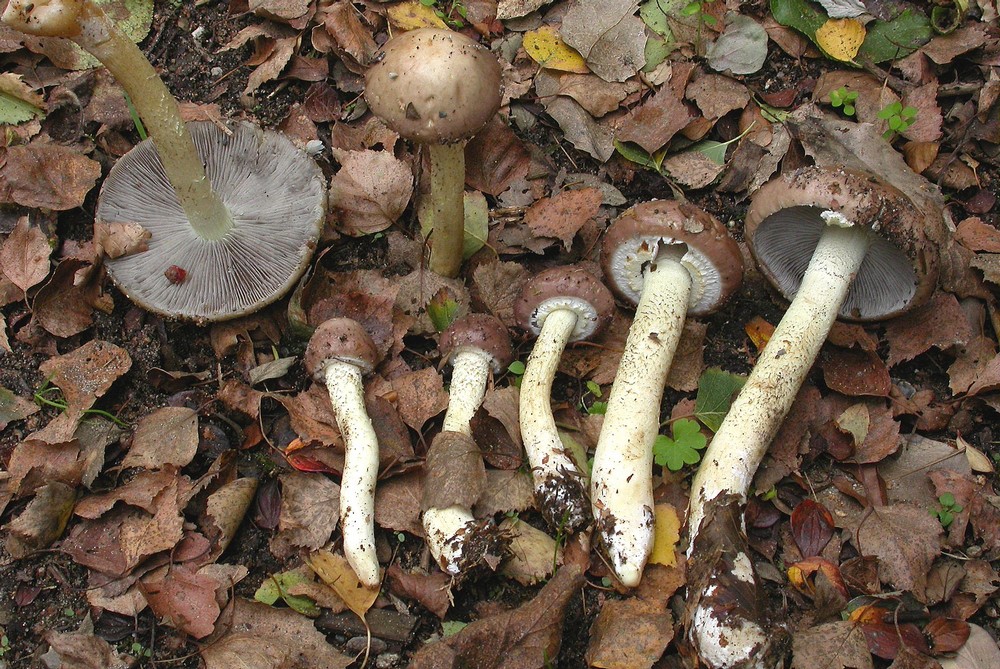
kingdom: Fungi
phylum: Basidiomycota
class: Agaricomycetes
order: Agaricales
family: Strophariaceae
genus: Stropharia
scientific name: Stropharia hornemannii
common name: nordisk bredblad
